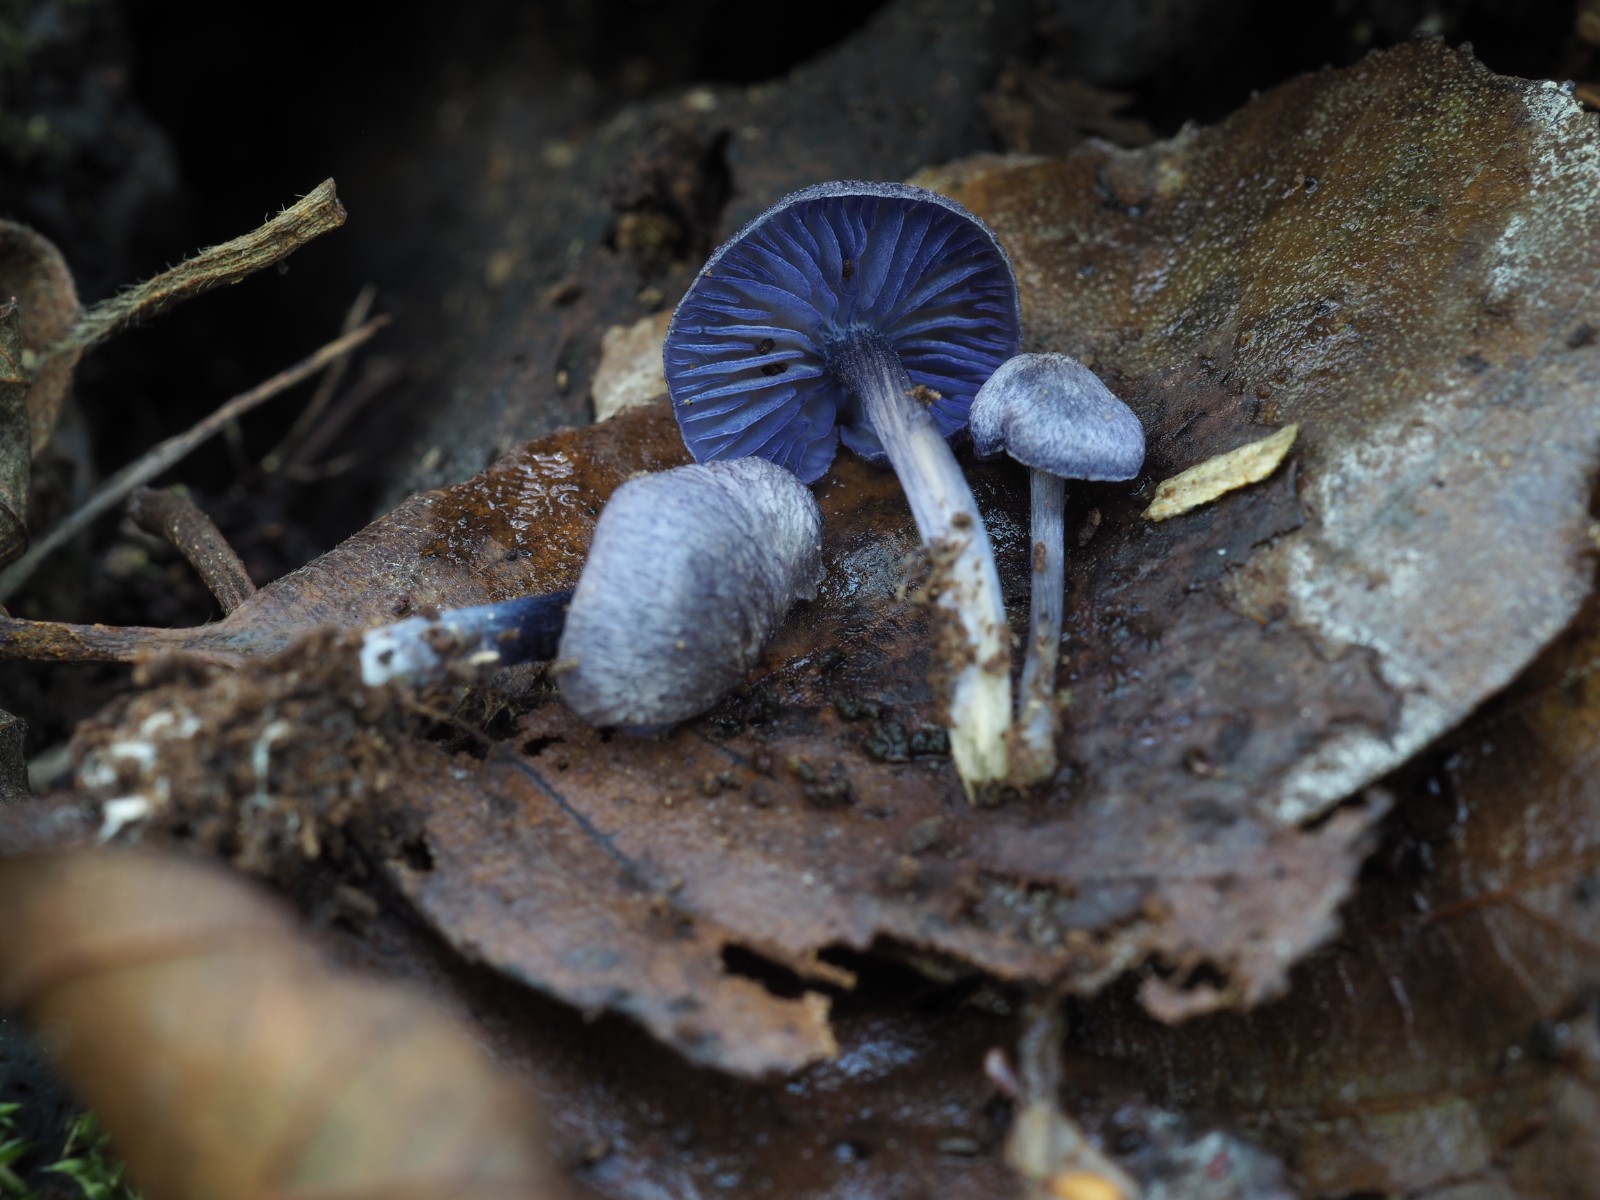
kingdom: Fungi
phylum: Basidiomycota
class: Agaricomycetes
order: Agaricales
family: Entolomataceae
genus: Entoloma
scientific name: Entoloma euchroum
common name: smuk rødblad
